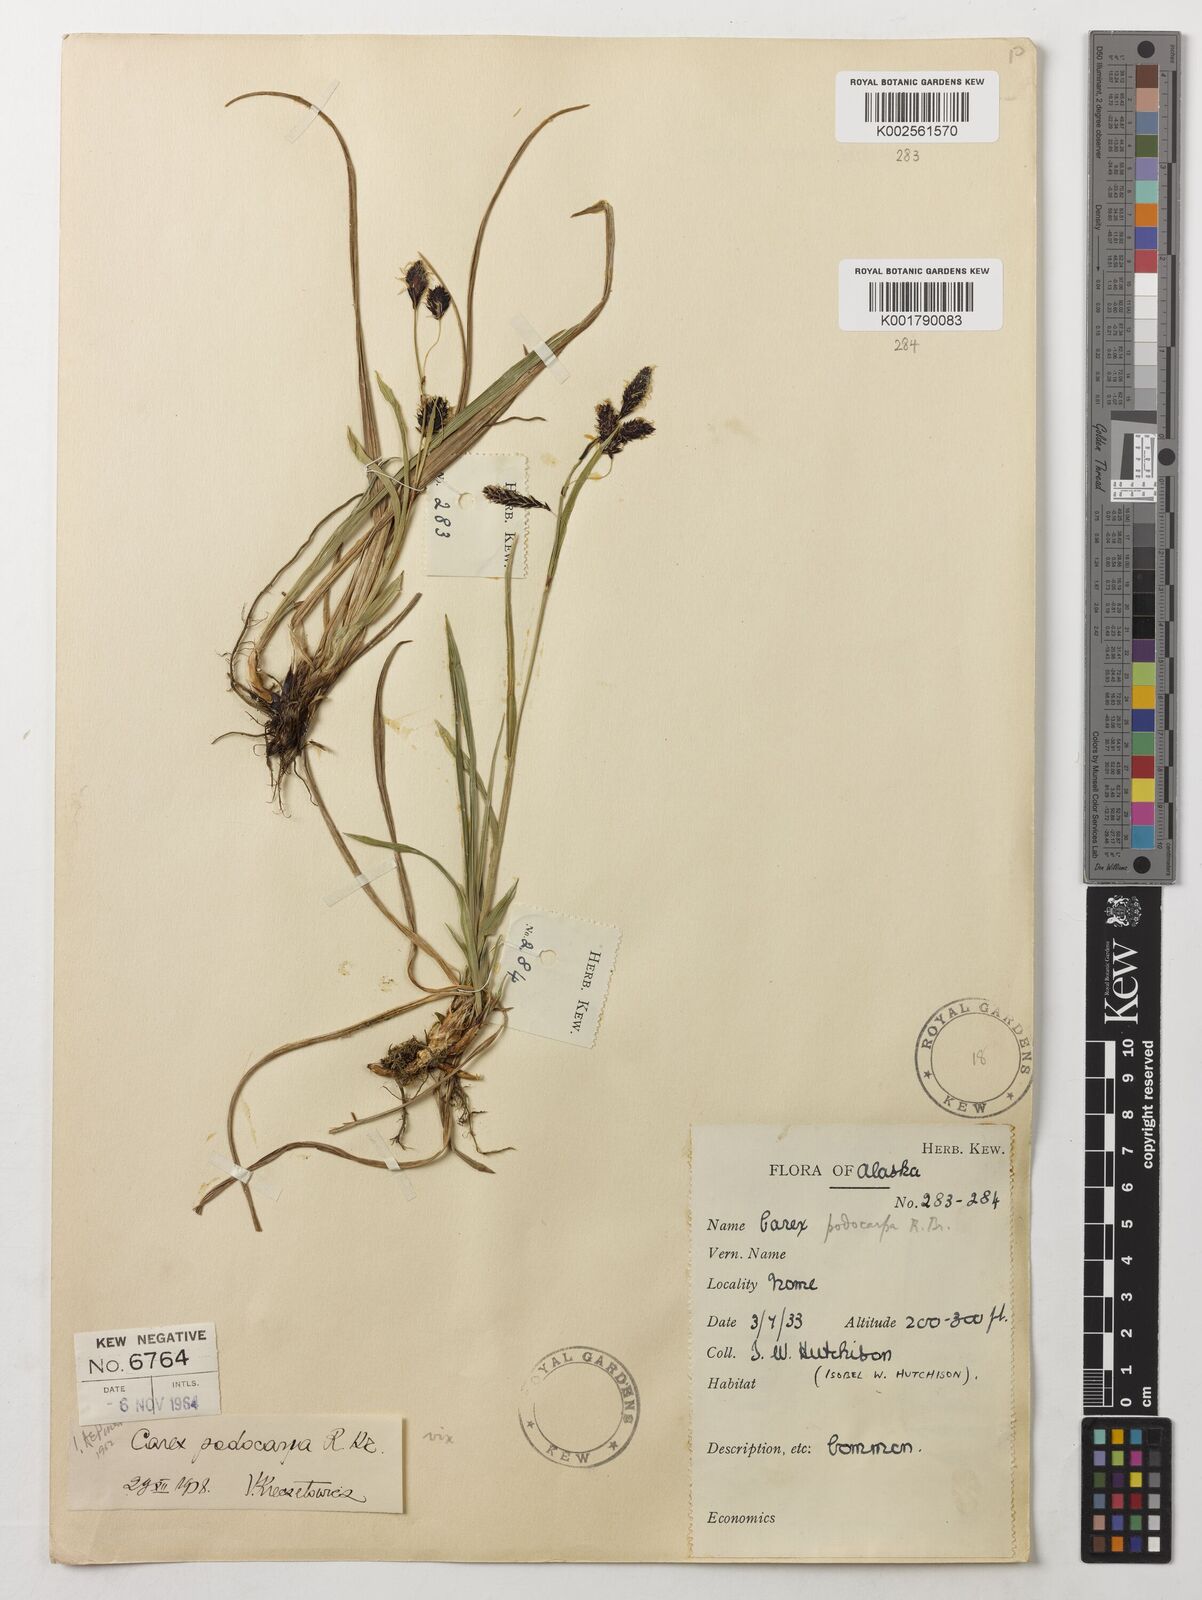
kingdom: Plantae
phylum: Tracheophyta
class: Liliopsida
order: Poales
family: Cyperaceae
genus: Carex
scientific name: Carex podocarpa
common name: Alpine sedge
